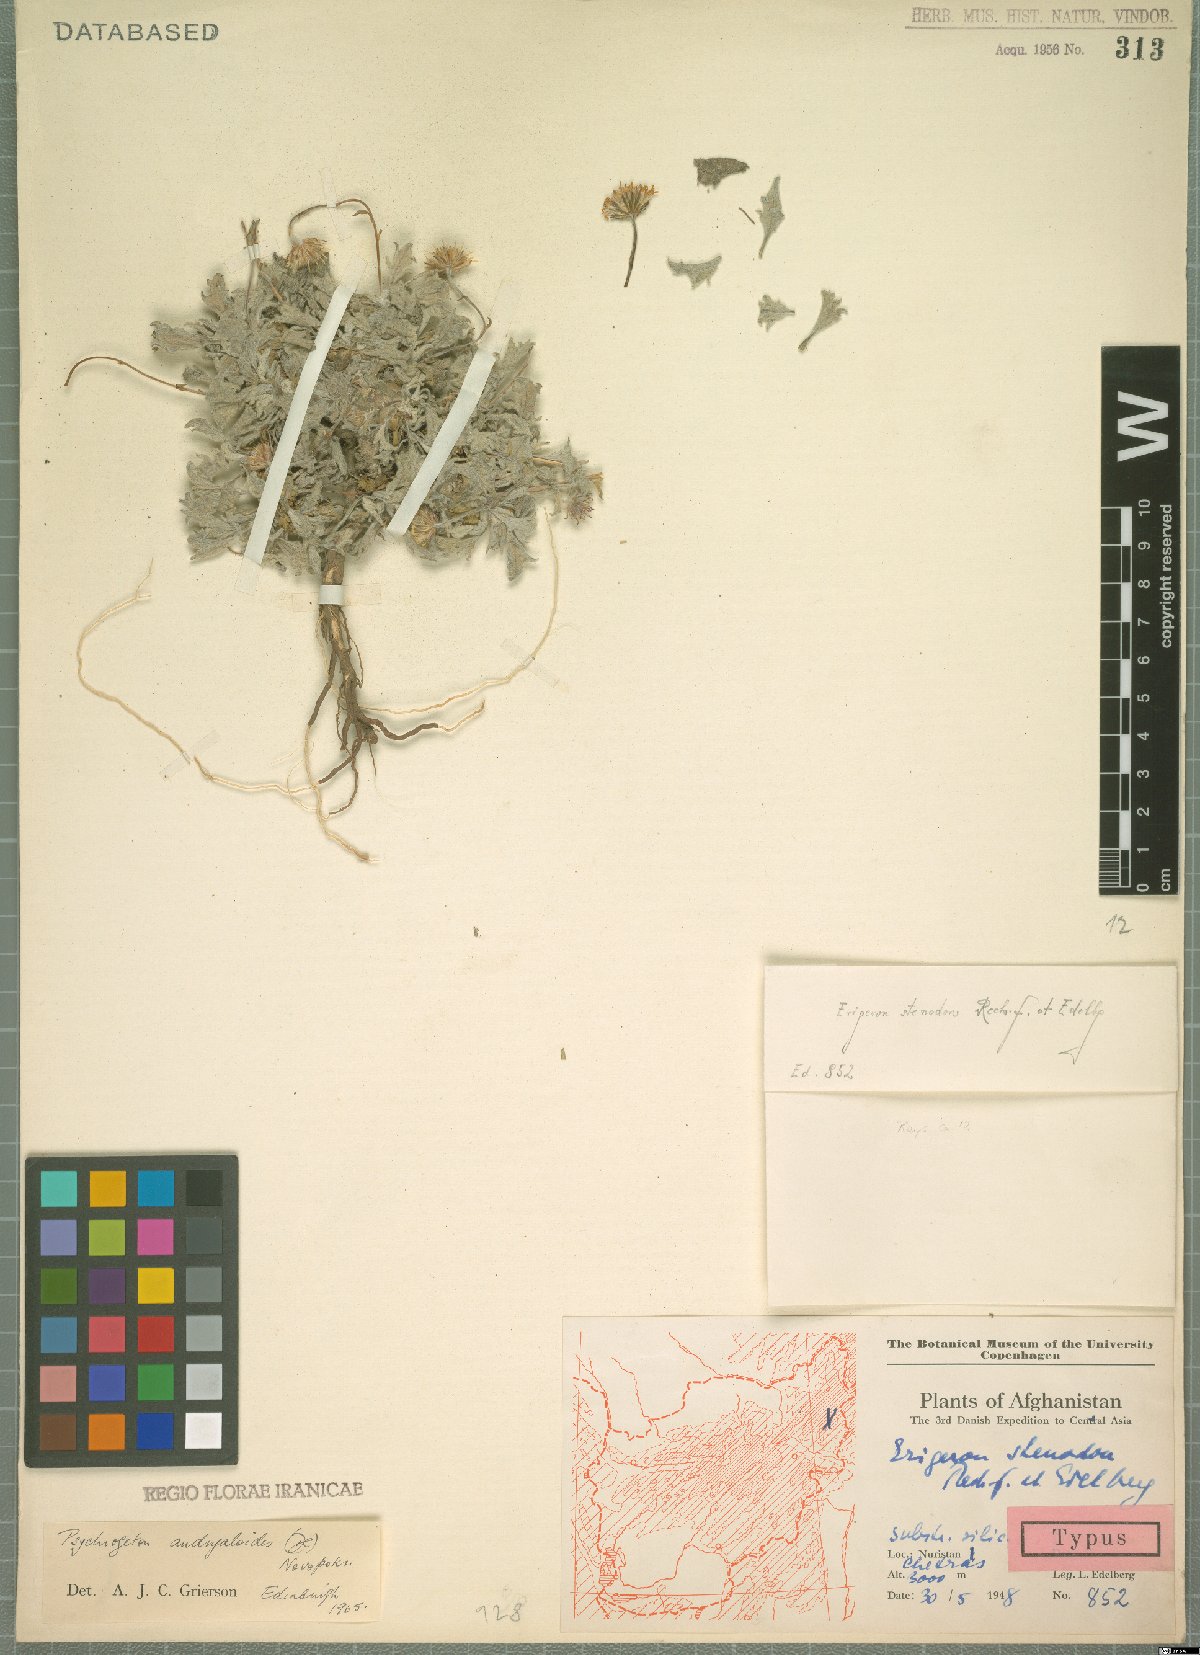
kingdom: Plantae
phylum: Tracheophyta
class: Magnoliopsida
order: Asterales
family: Asteraceae
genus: Psychrogeton
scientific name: Psychrogeton andryaloides
